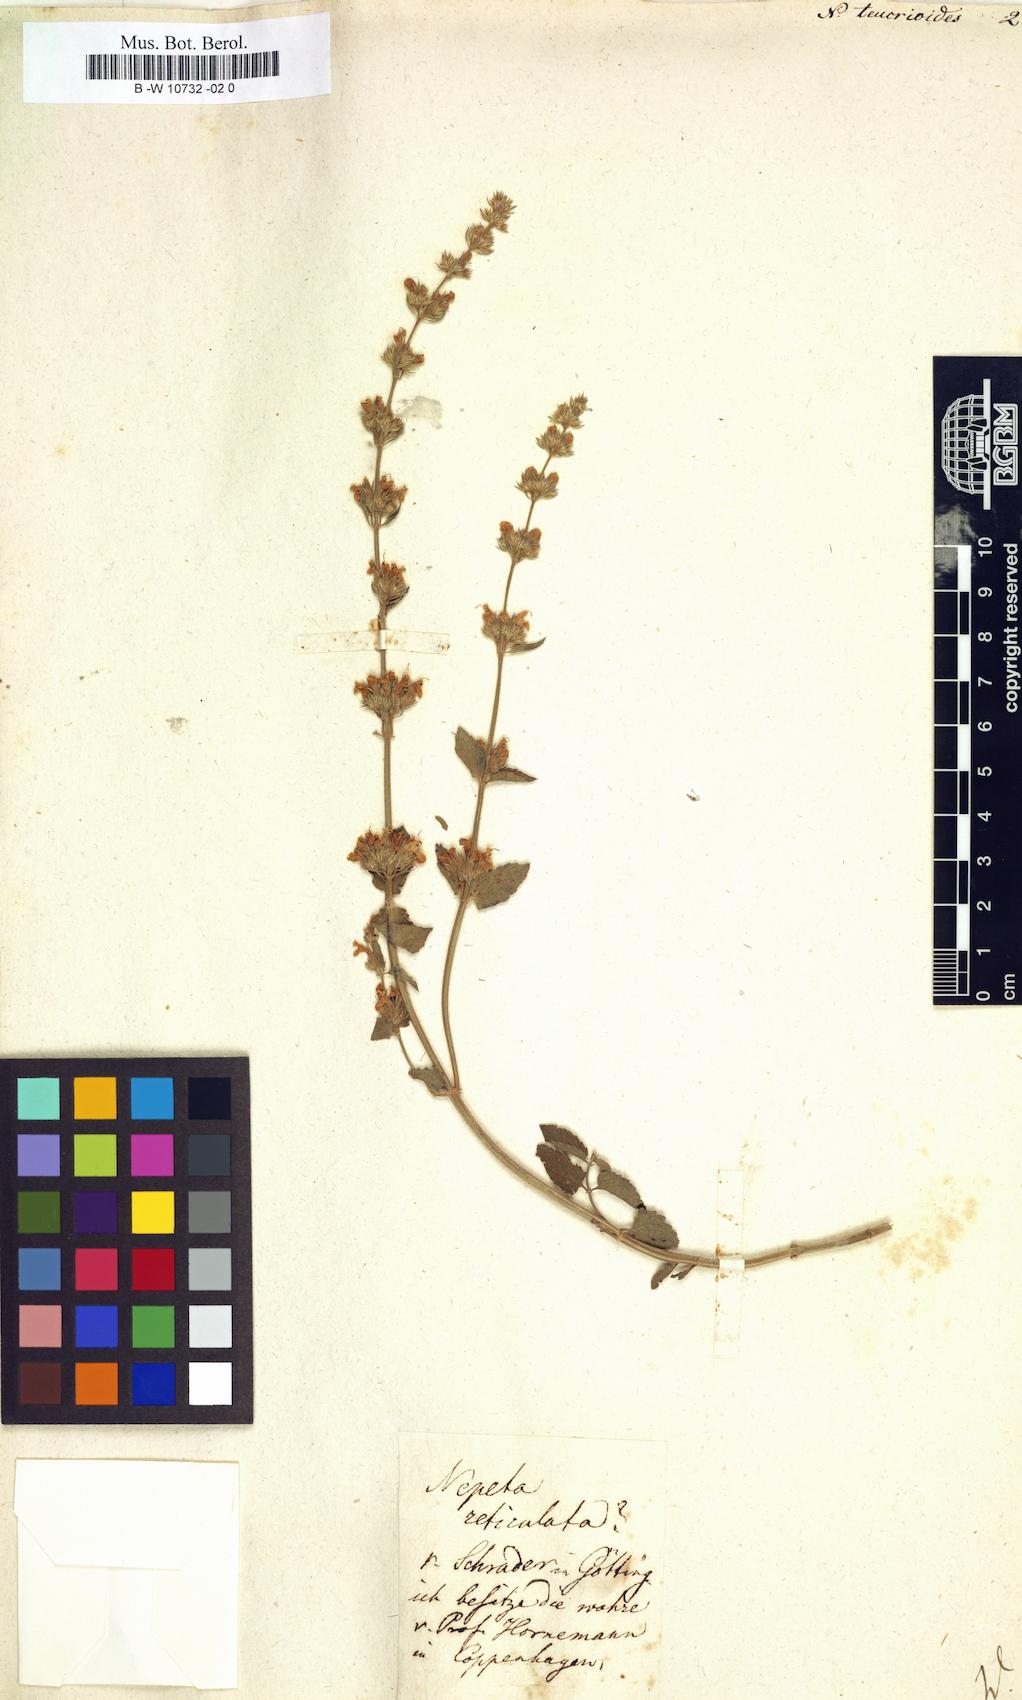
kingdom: Plantae
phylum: Tracheophyta
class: Magnoliopsida
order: Lamiales
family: Lamiaceae
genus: Nepeta
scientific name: Nepeta italica
